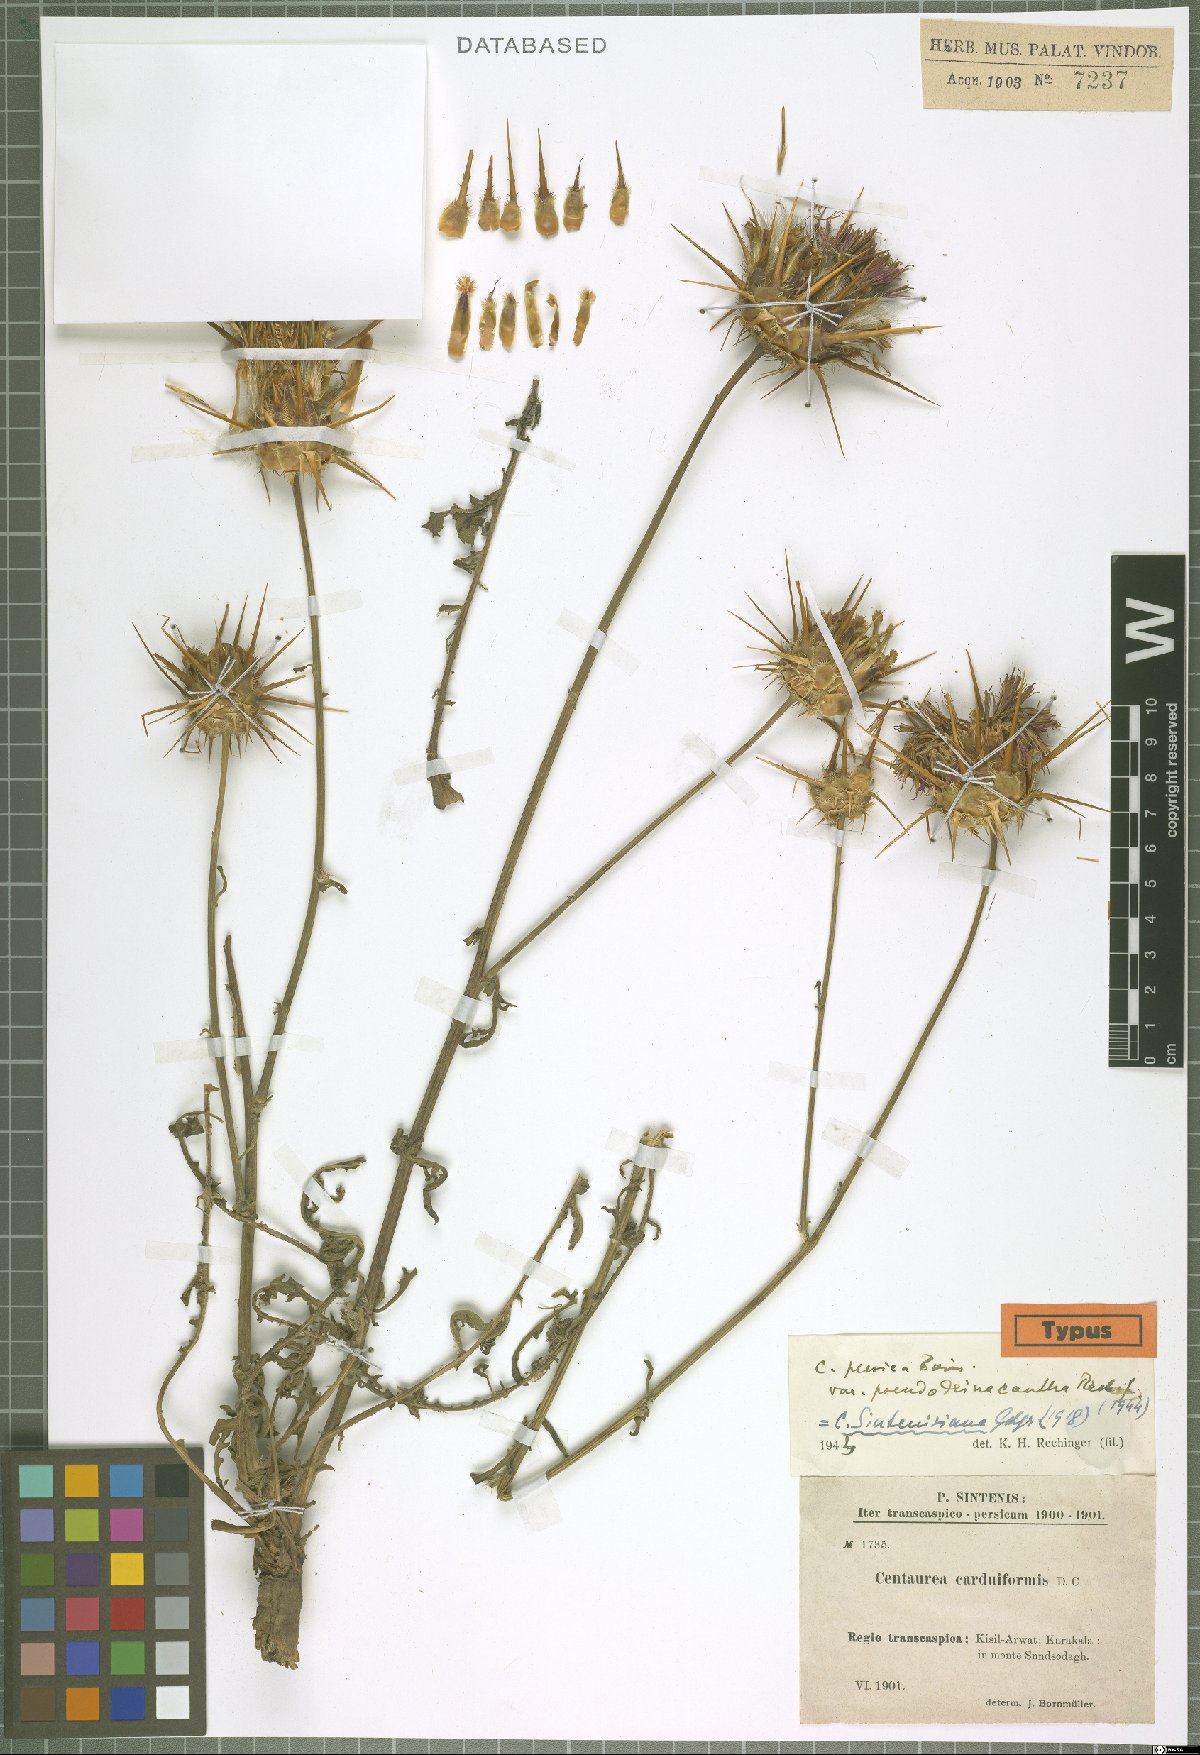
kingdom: Plantae
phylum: Tracheophyta
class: Magnoliopsida
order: Asterales
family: Asteraceae
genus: Psephellus
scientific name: Psephellus sintenisii
